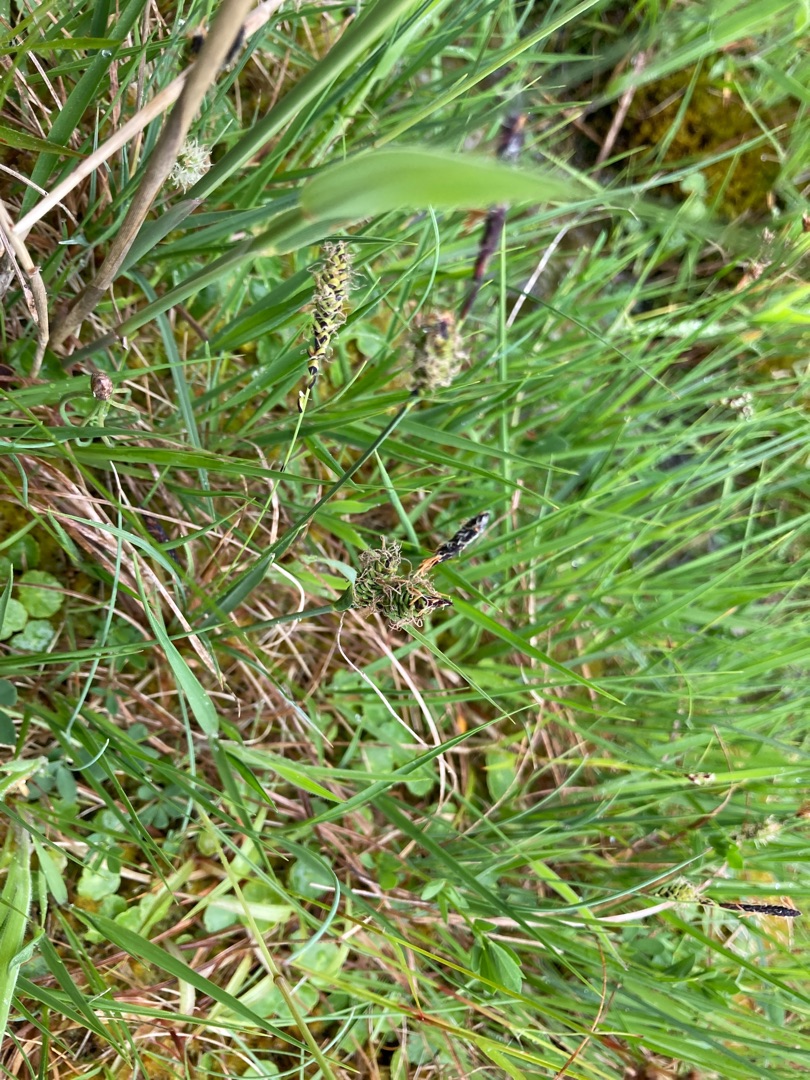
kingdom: Plantae
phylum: Tracheophyta
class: Liliopsida
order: Poales
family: Cyperaceae
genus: Carex
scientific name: Carex
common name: Starslægten
